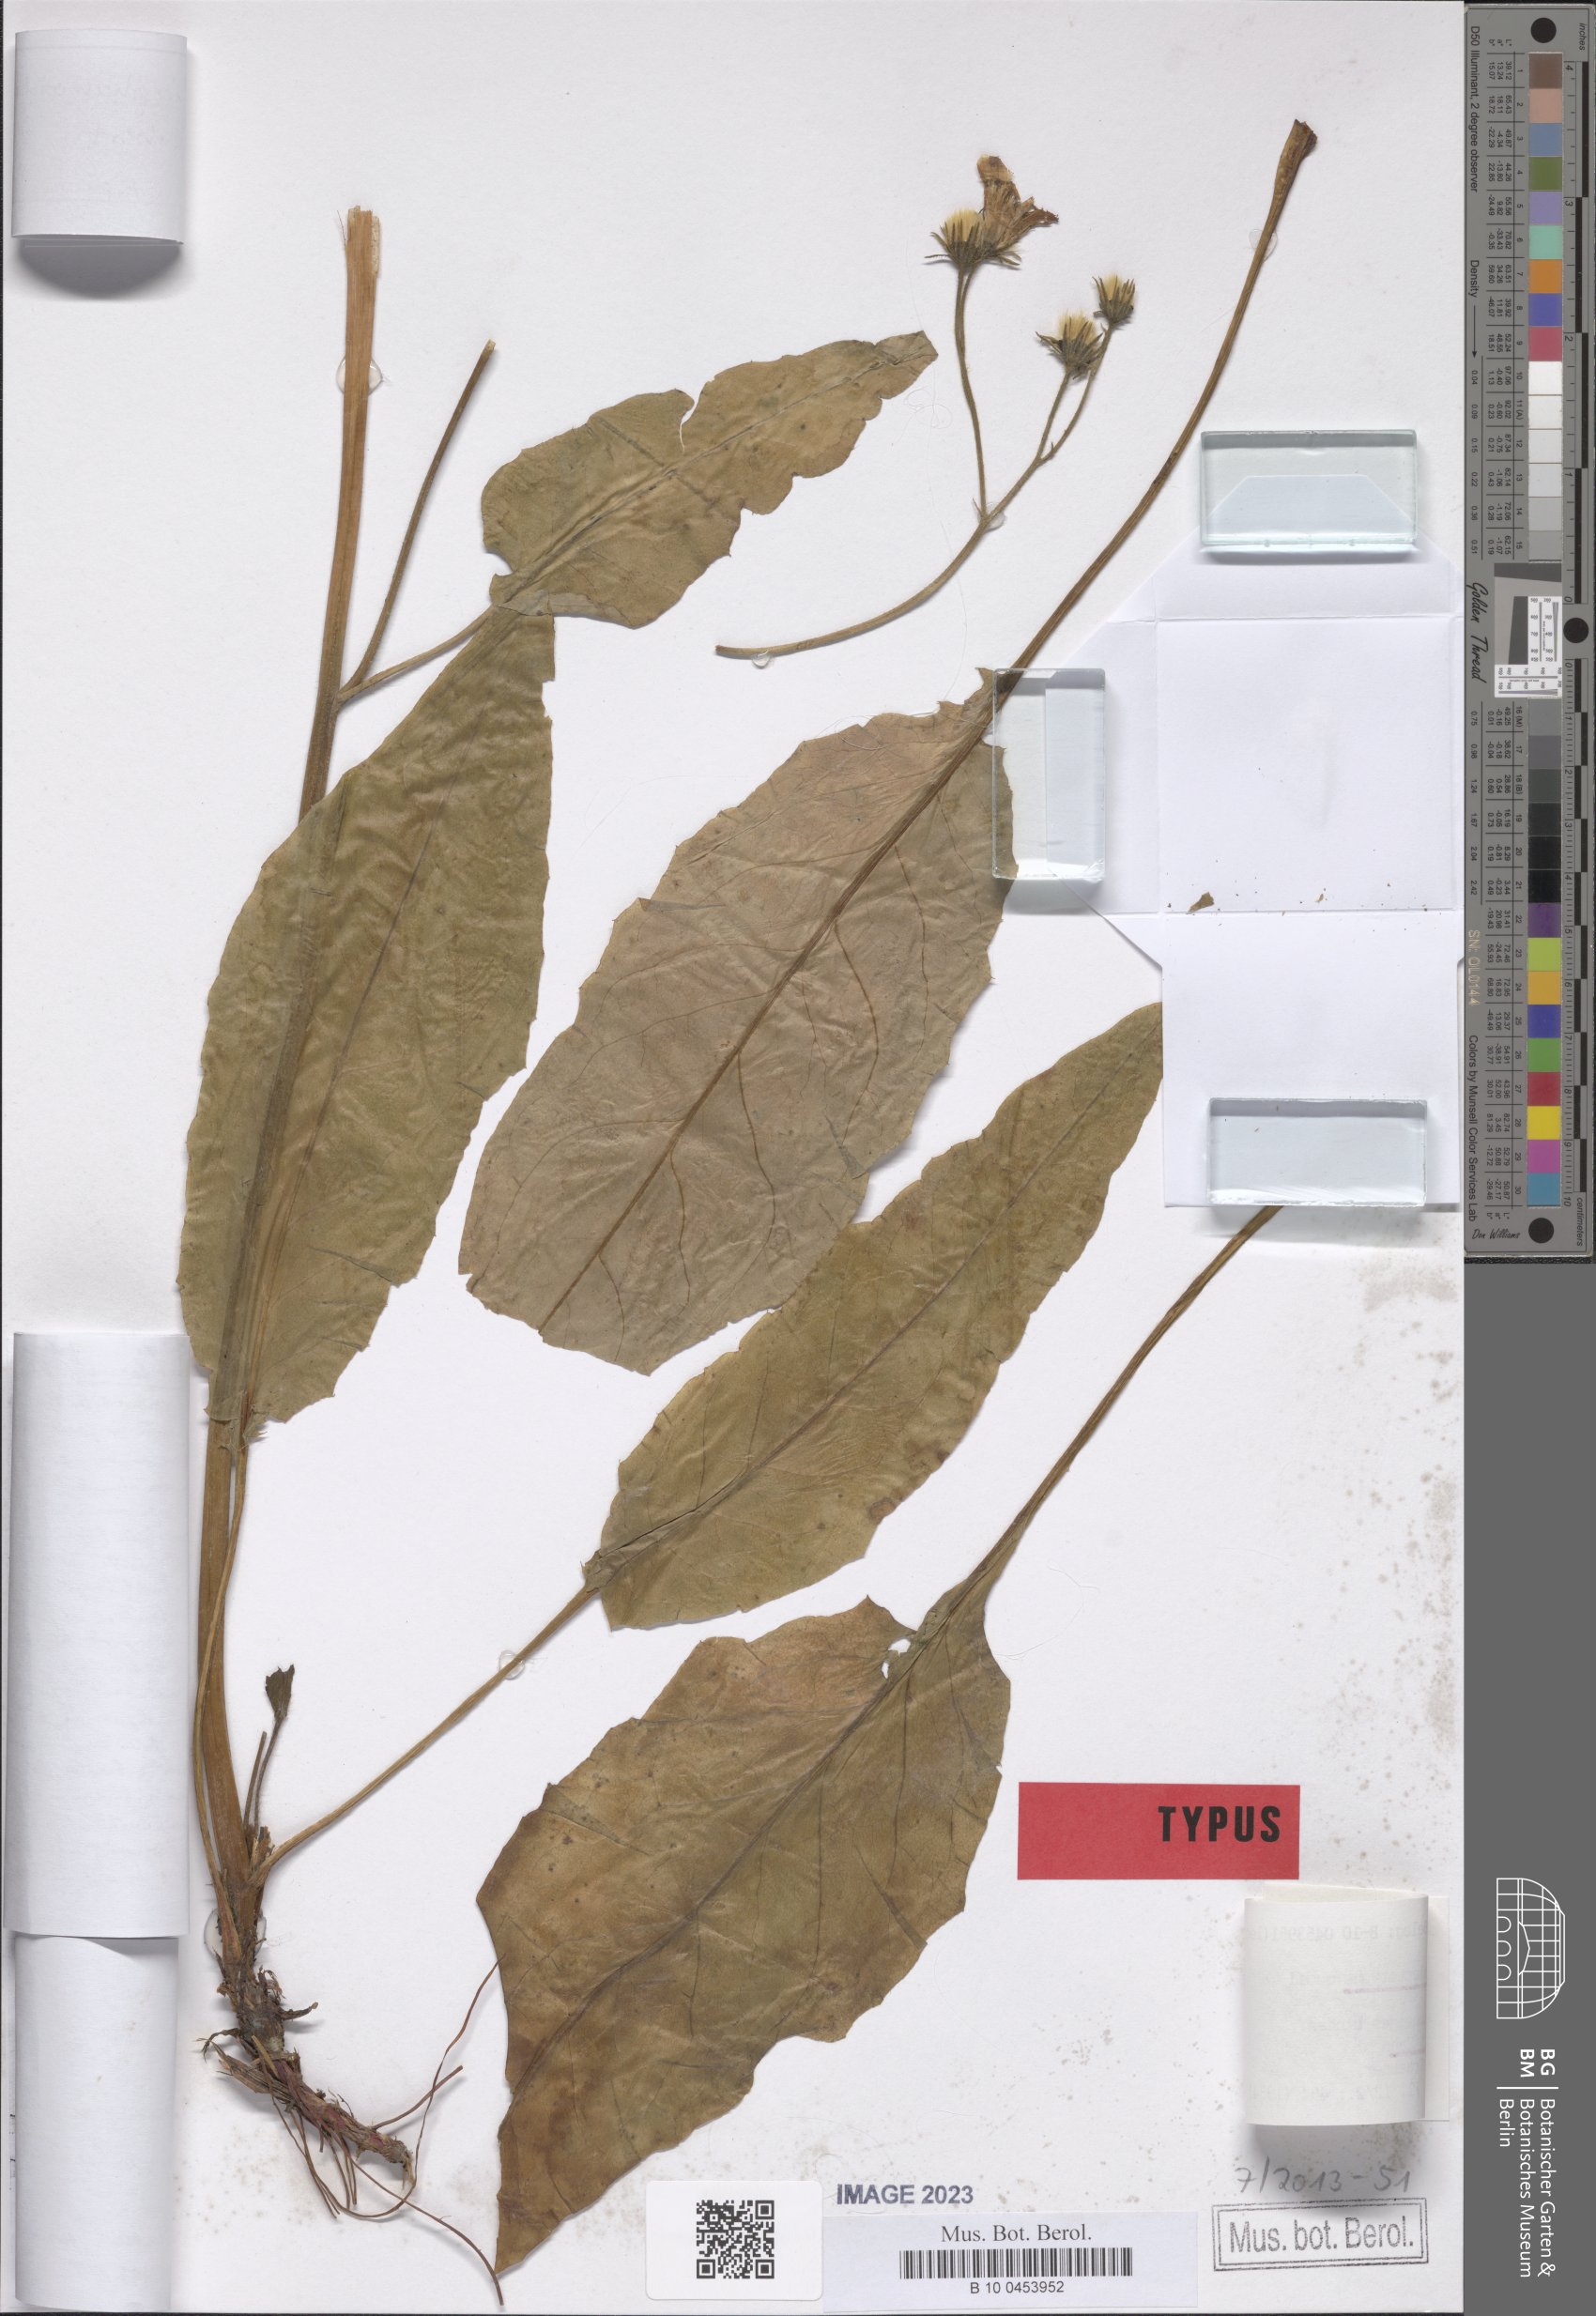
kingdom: Plantae
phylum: Tracheophyta
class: Magnoliopsida
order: Asterales
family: Asteraceae
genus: Hieracium
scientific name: Hieracium lehbertii
